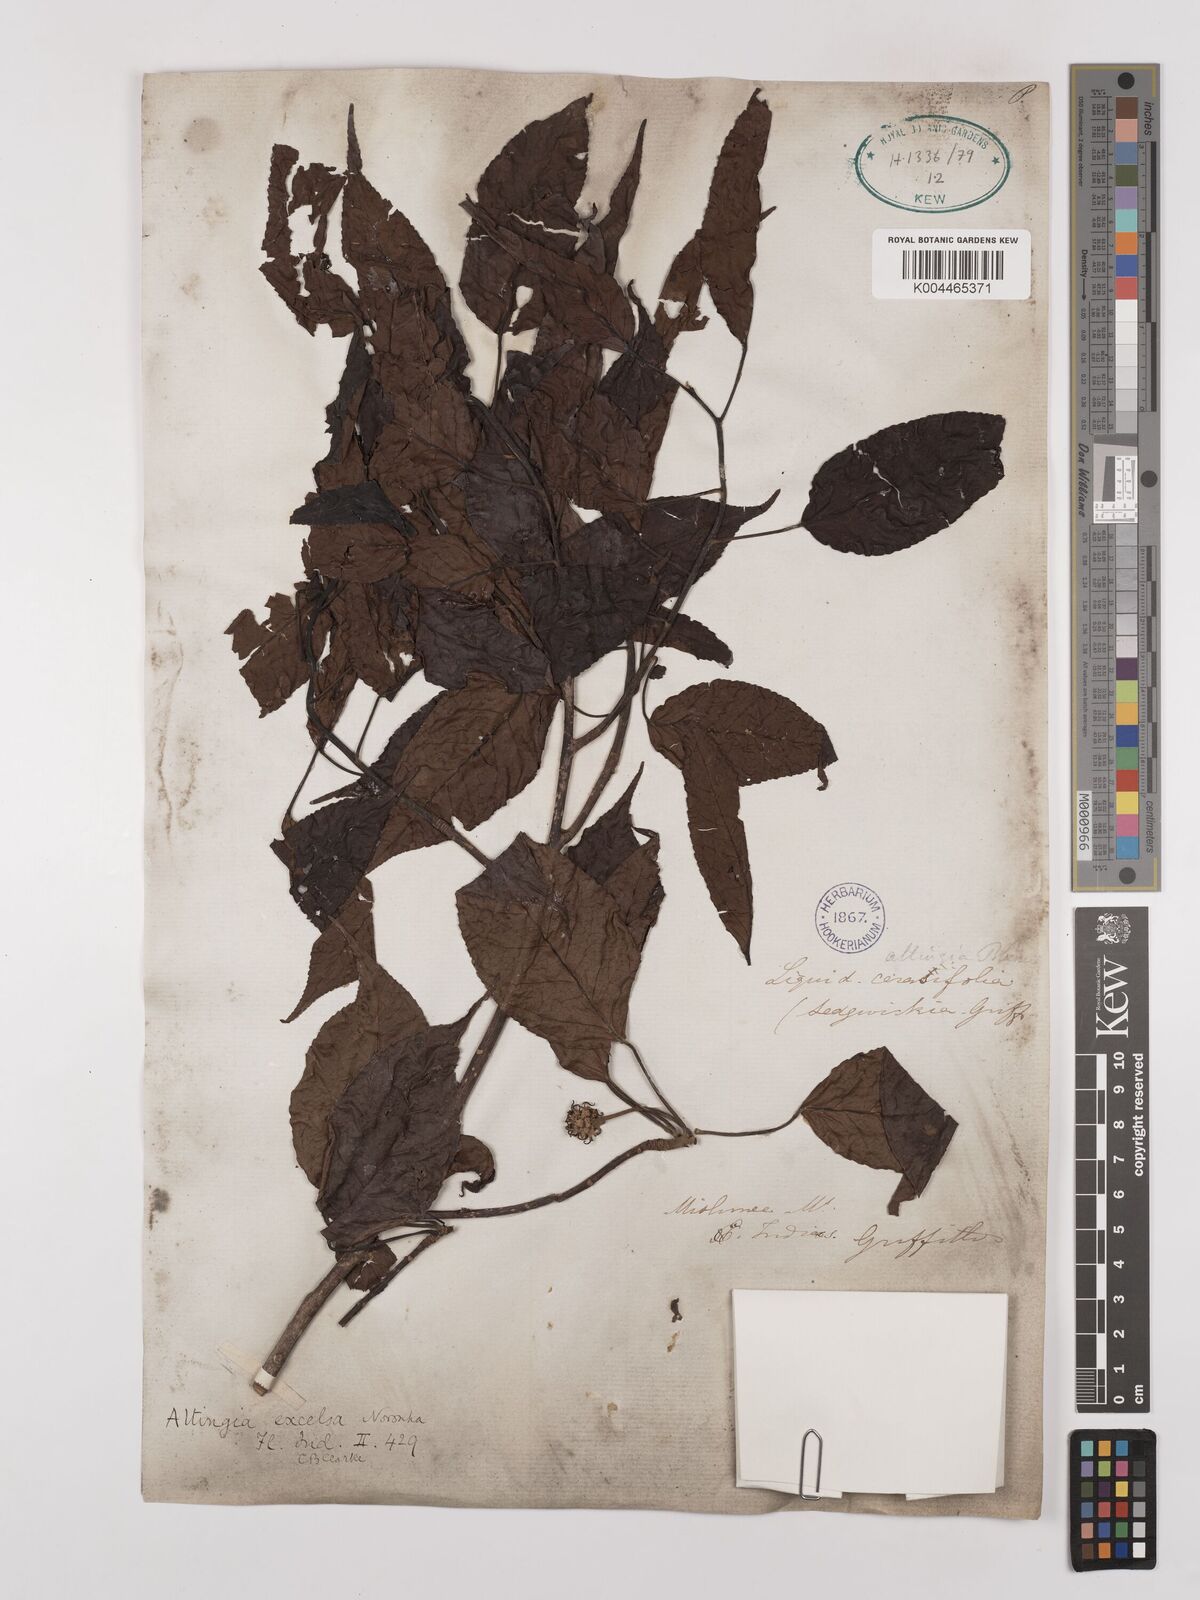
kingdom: Plantae
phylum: Tracheophyta
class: Magnoliopsida
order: Saxifragales
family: Altingiaceae
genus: Liquidambar
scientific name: Liquidambar excelsa
